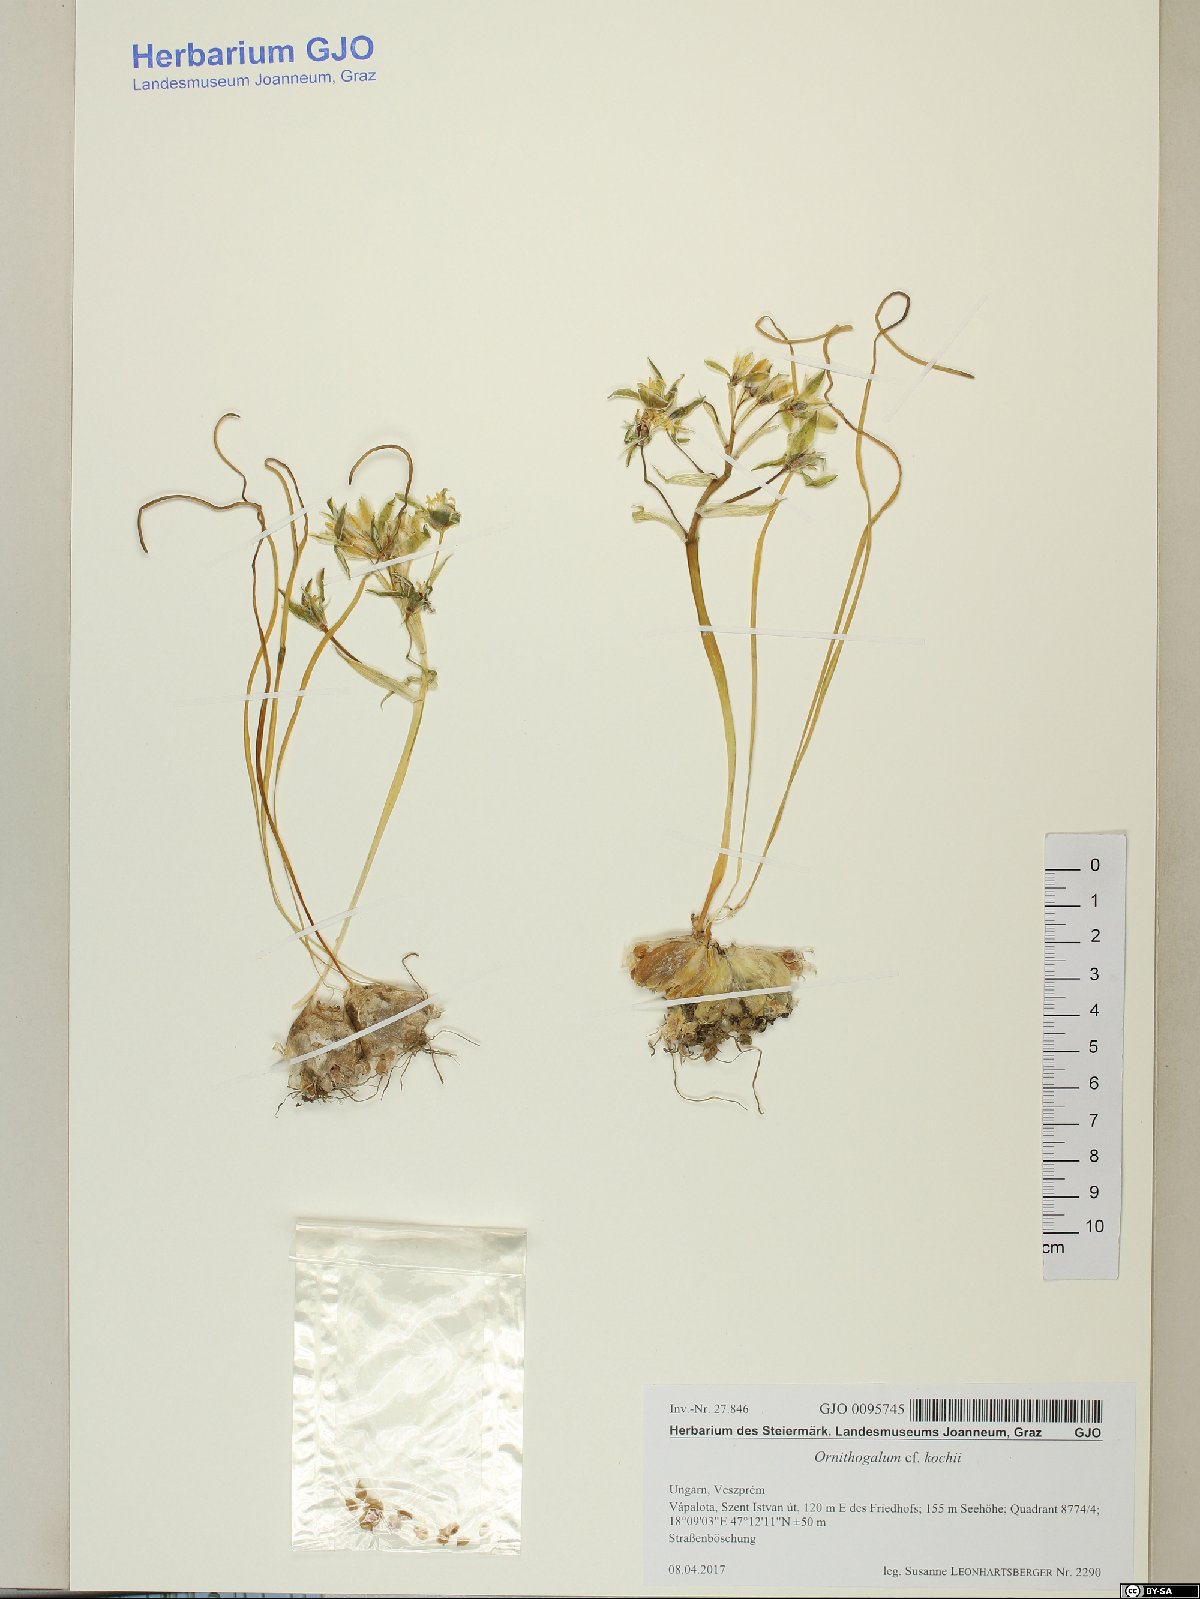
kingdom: Plantae
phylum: Tracheophyta
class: Liliopsida
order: Asparagales
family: Asparagaceae
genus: Ornithogalum
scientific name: Ornithogalum orthophyllum
